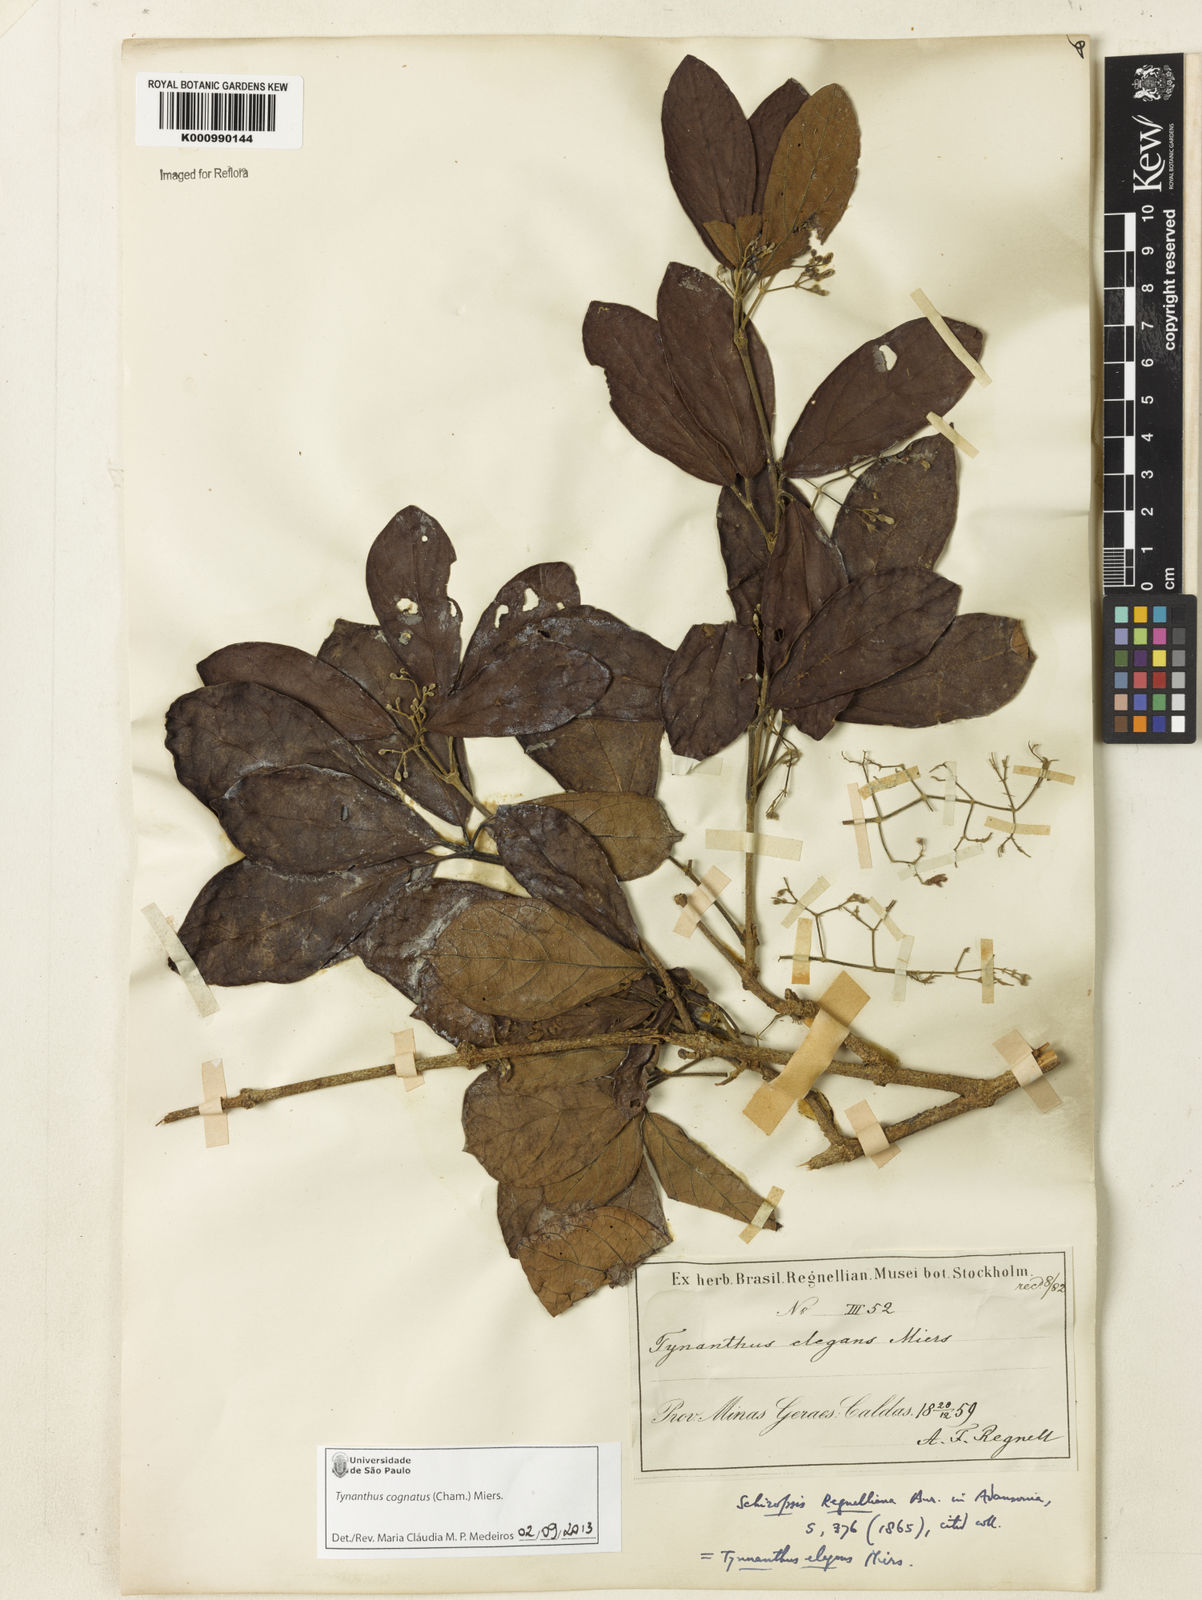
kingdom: Plantae
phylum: Tracheophyta
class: Magnoliopsida
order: Lamiales
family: Bignoniaceae
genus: Tynanthus
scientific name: Tynanthus cognatus
